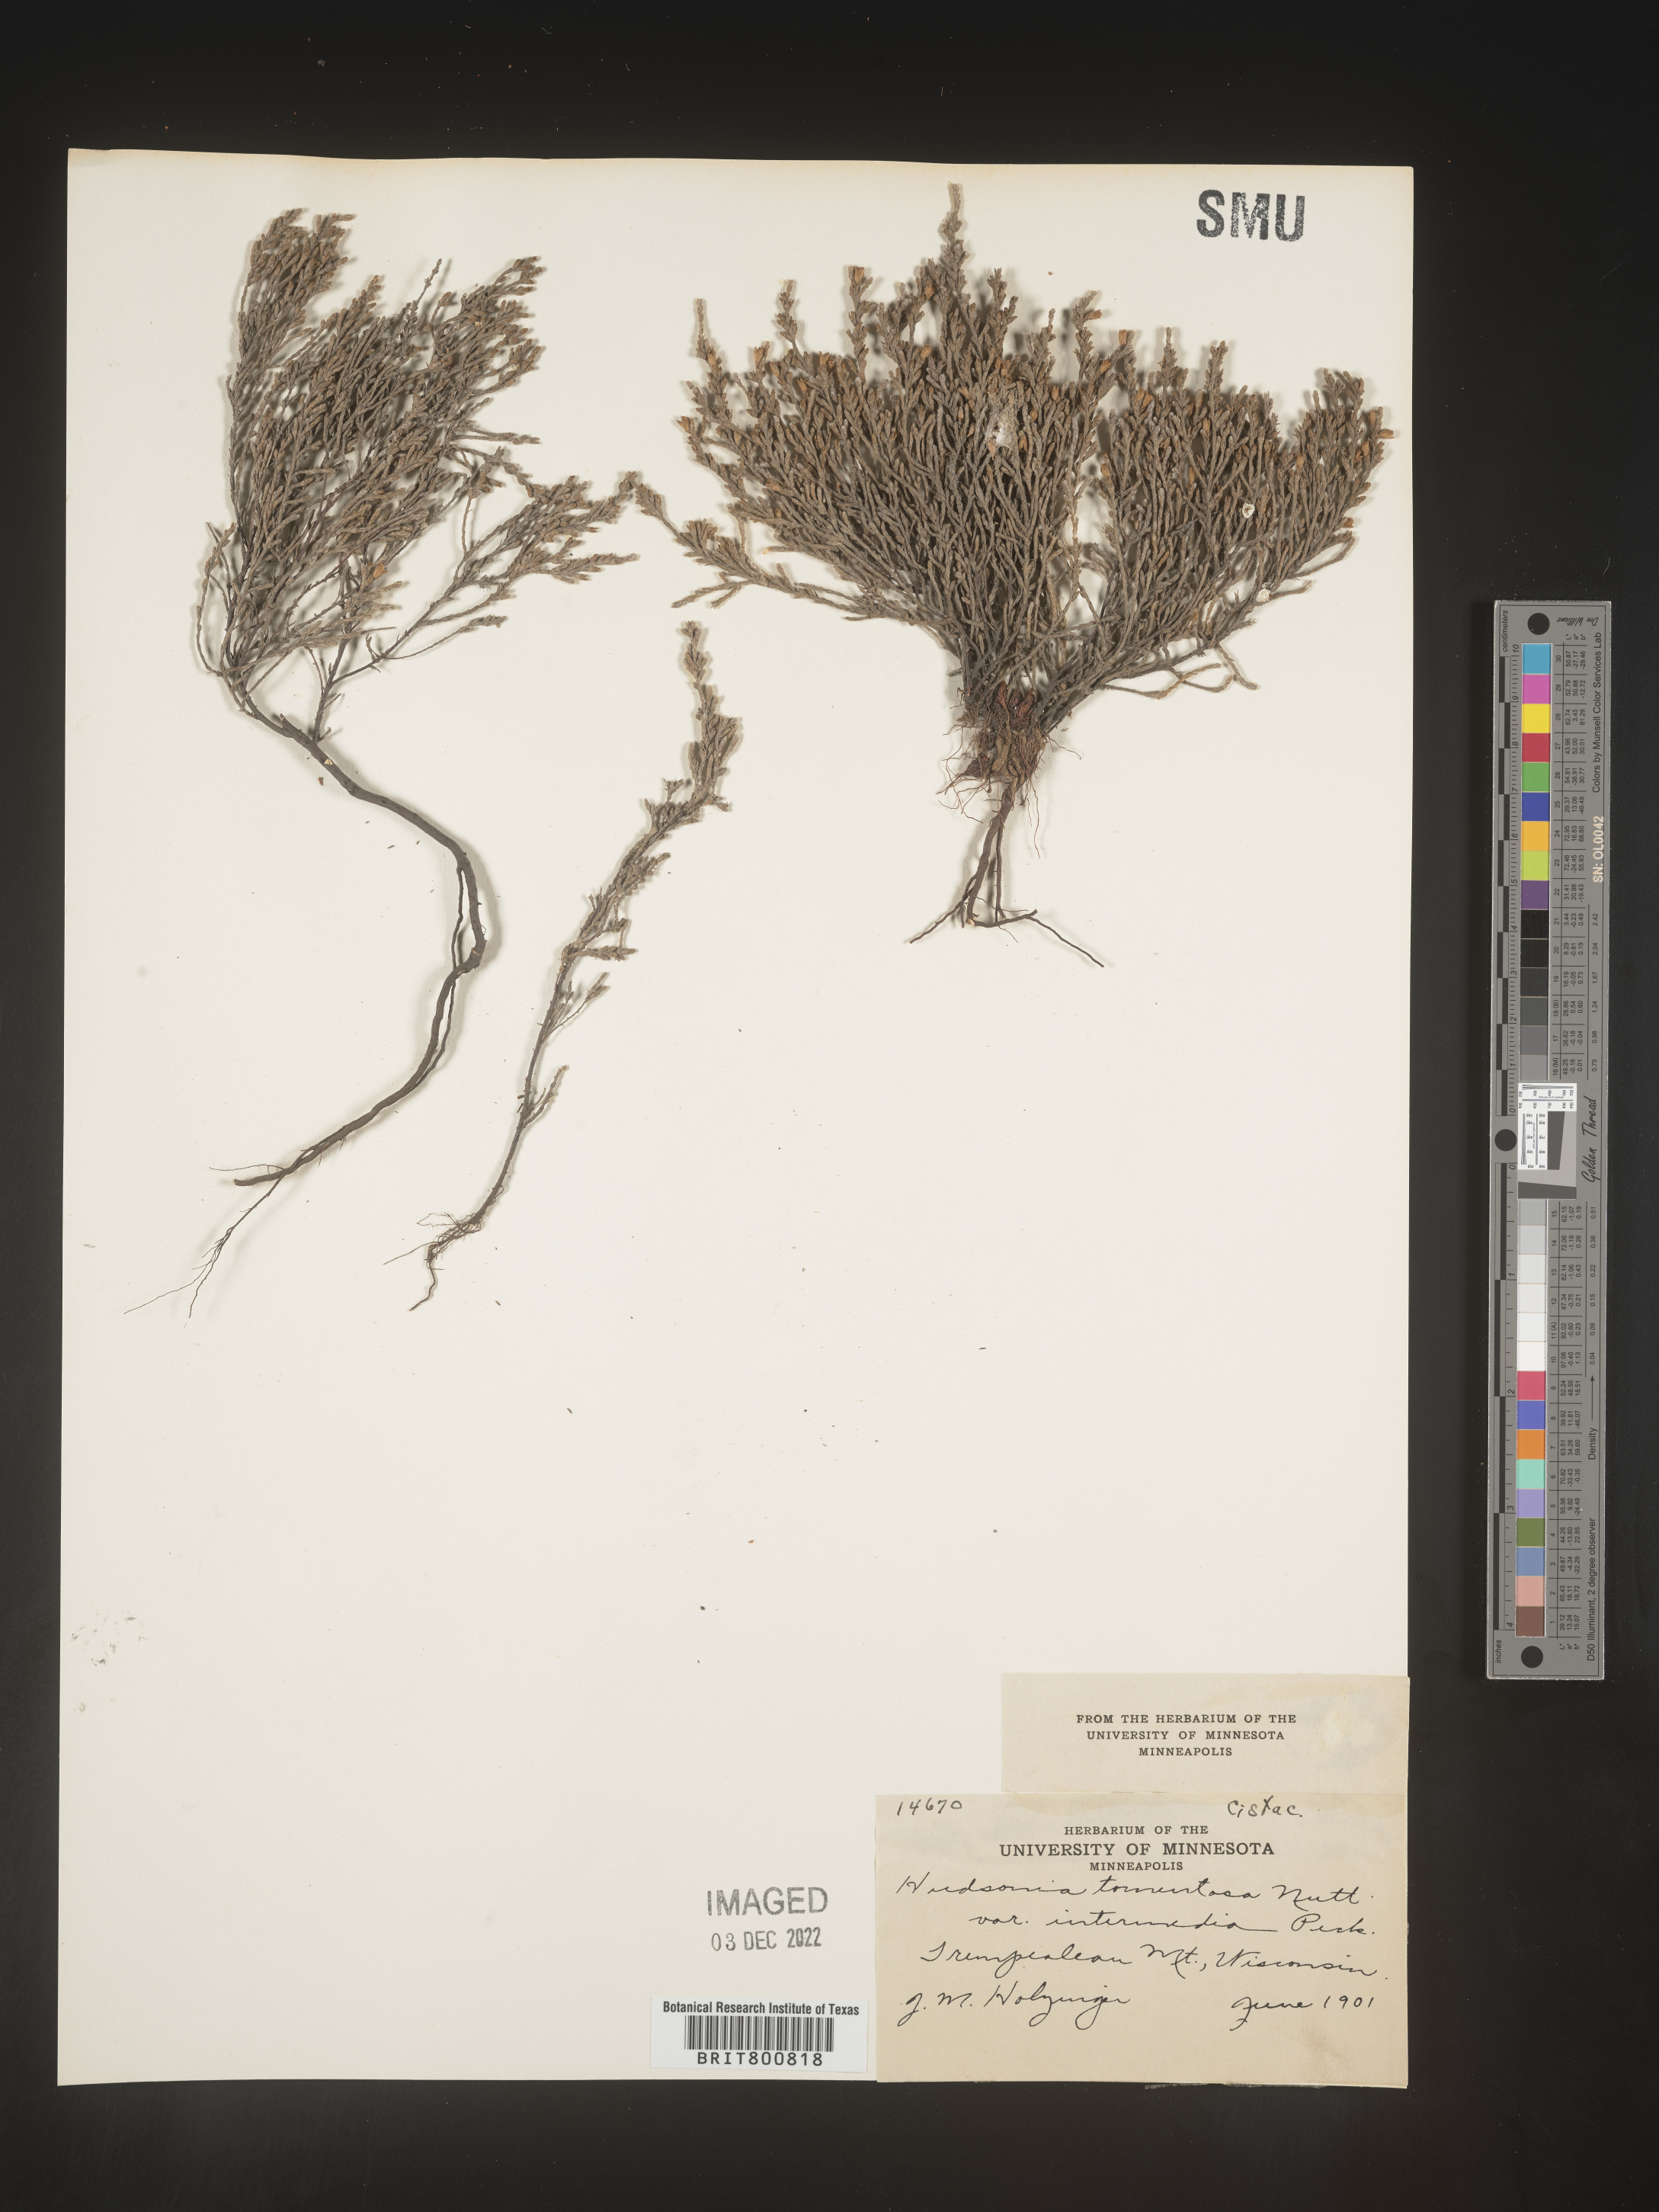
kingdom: Plantae
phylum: Tracheophyta
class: Magnoliopsida
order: Malvales
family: Cistaceae
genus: Hudsonia
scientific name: Hudsonia tomentosa
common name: Beach-heath
